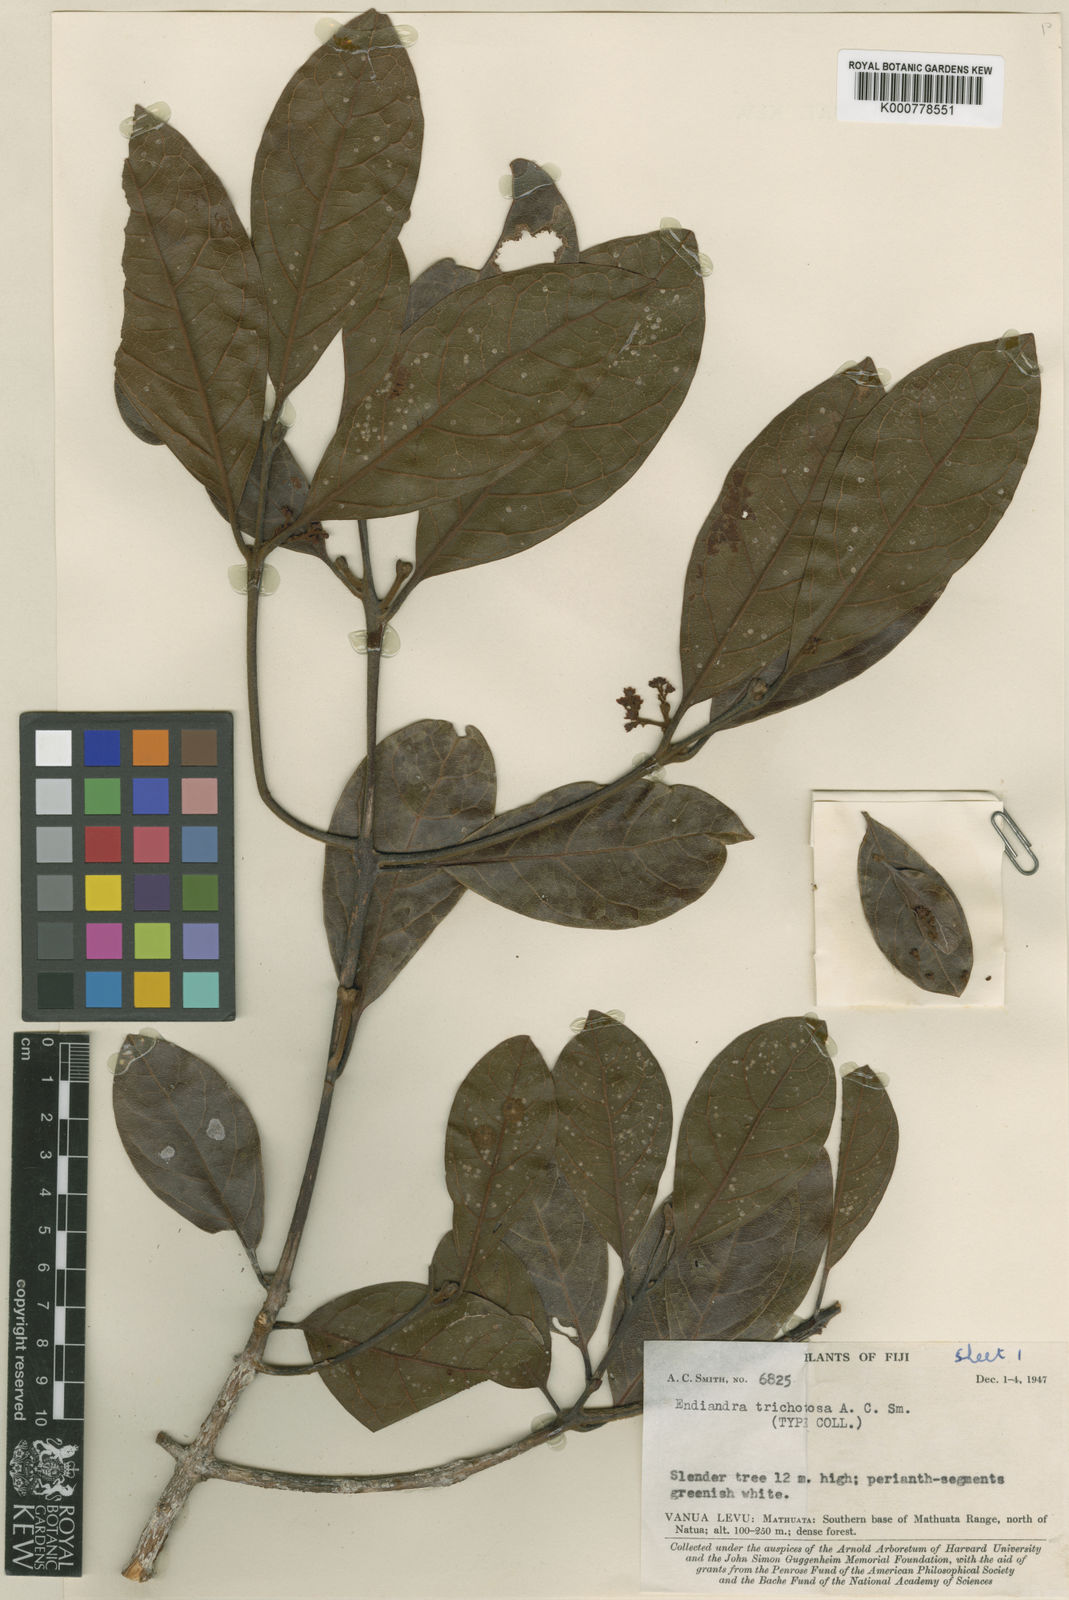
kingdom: Plantae
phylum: Tracheophyta
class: Magnoliopsida
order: Laurales
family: Lauraceae
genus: Endiandra
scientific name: Endiandra trichotosa
